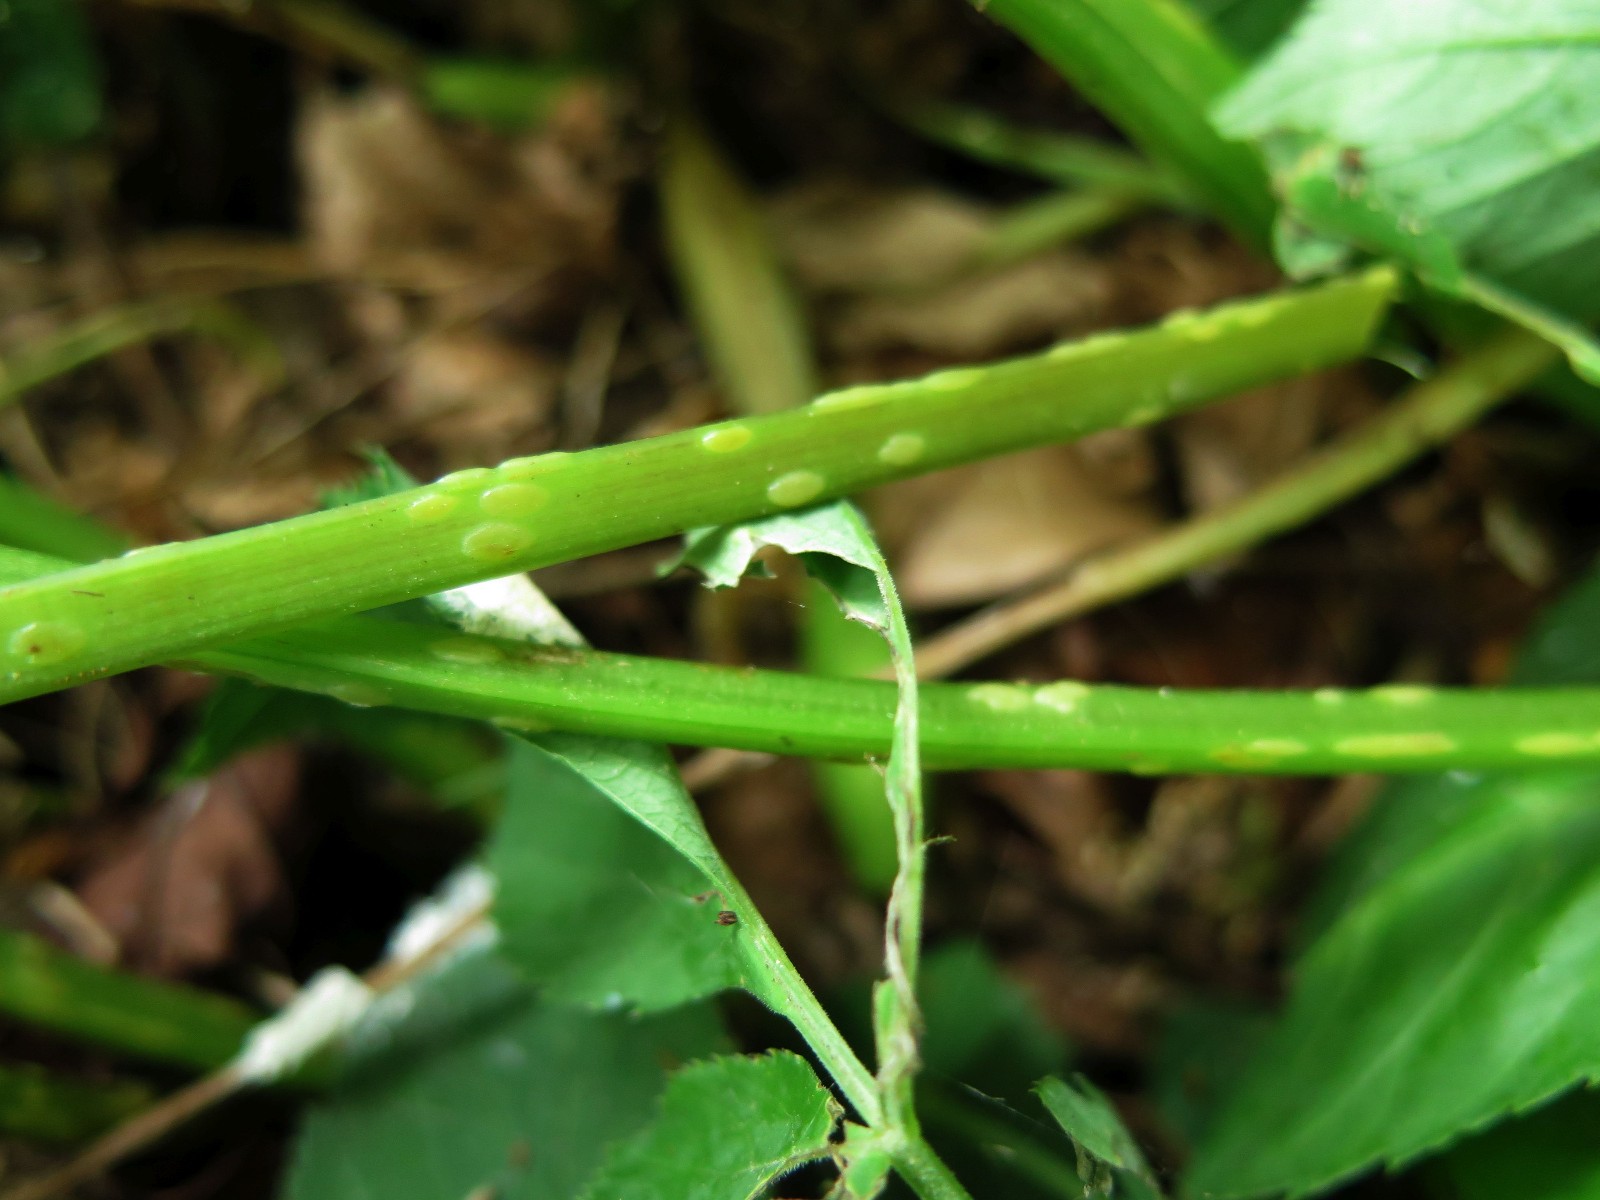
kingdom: Fungi
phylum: Ascomycota
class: Taphrinomycetes
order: Taphrinales
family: Taphrinaceae
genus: Protomyces
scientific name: Protomyces macrosporus
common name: skvalderkål-vablesæk
